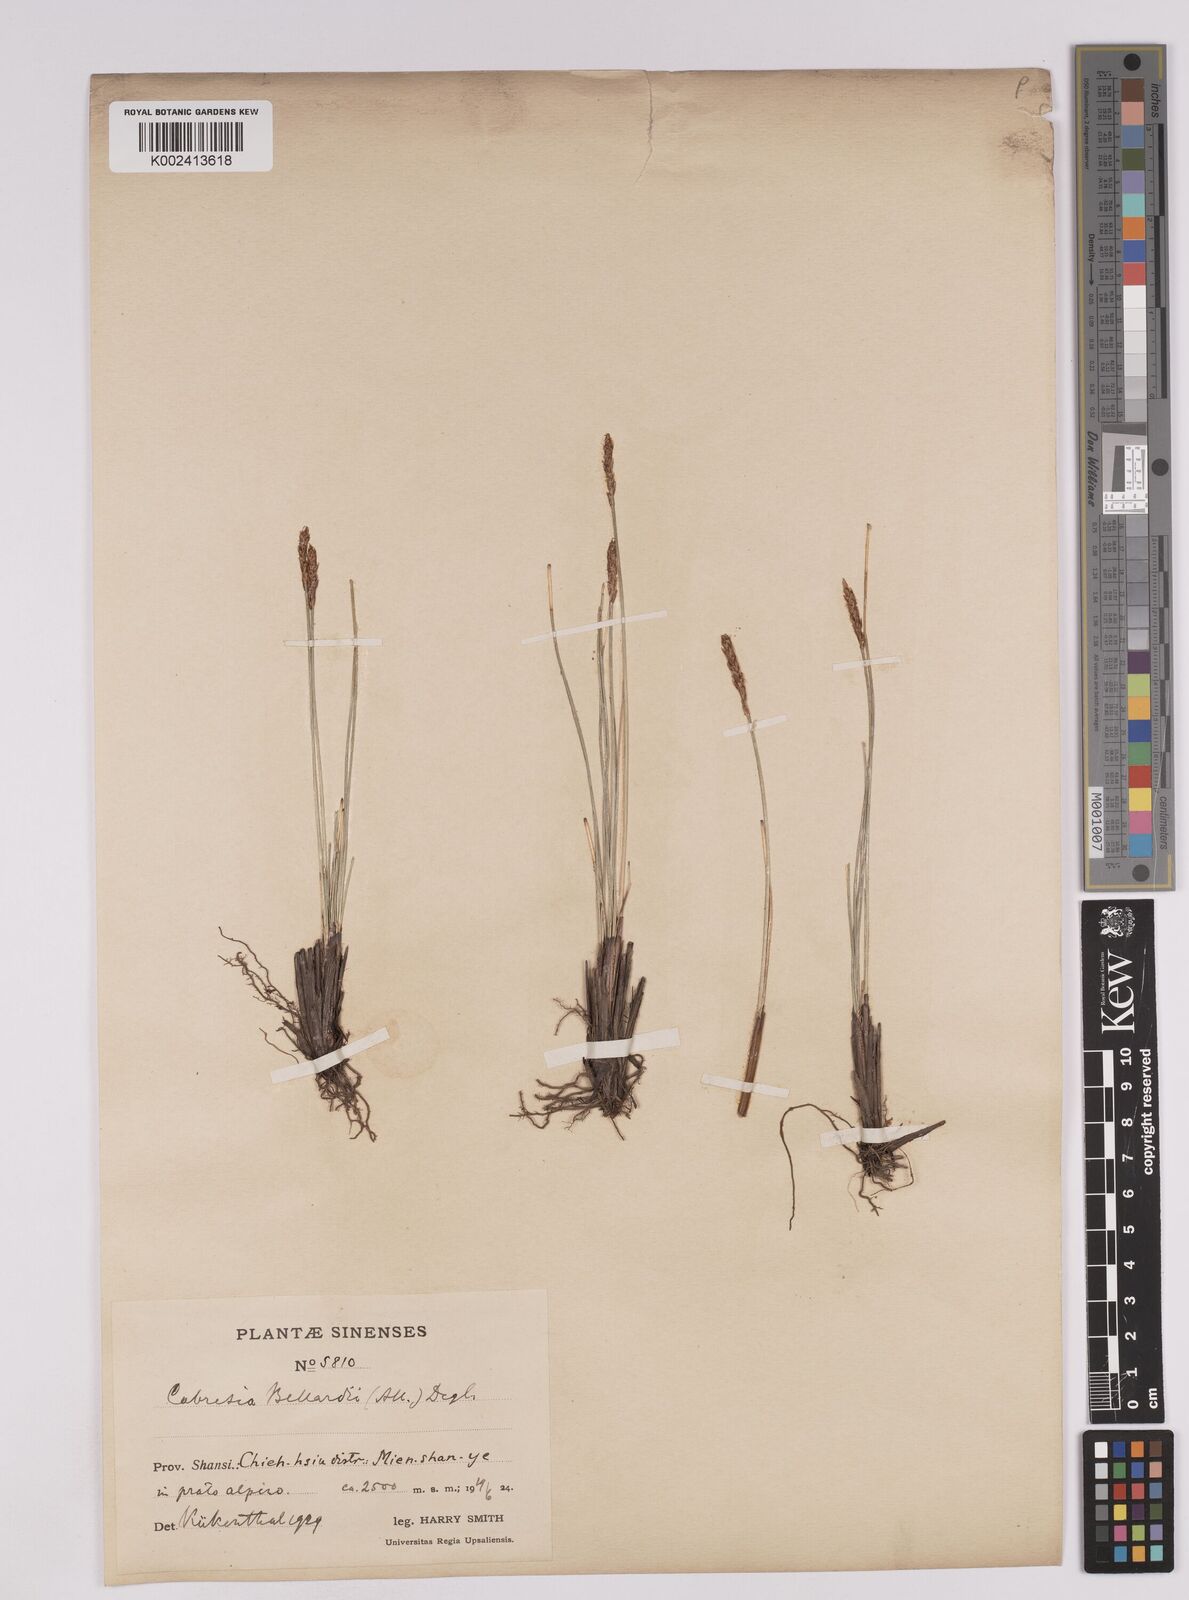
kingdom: Plantae
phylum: Tracheophyta
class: Liliopsida
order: Poales
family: Cyperaceae
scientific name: Cyperaceae
